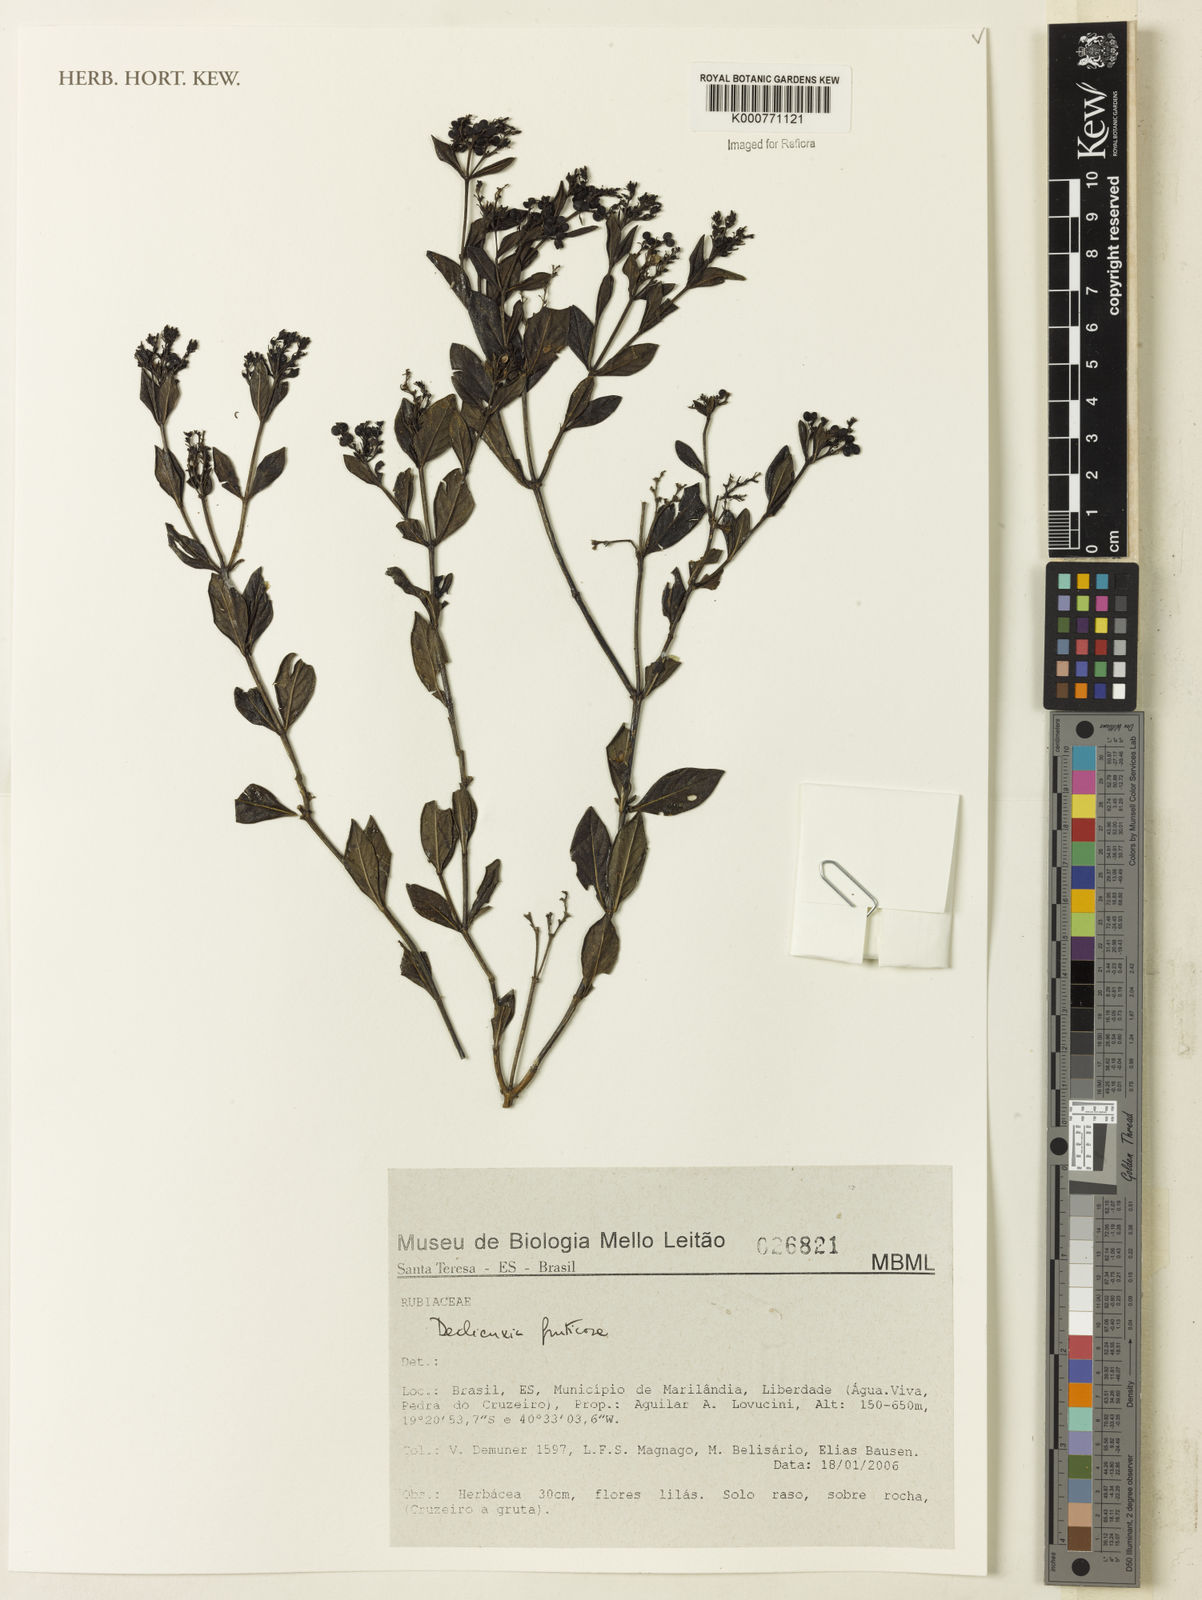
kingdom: Plantae
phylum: Tracheophyta
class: Magnoliopsida
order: Gentianales
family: Rubiaceae
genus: Declieuxia
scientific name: Declieuxia fruticosa
